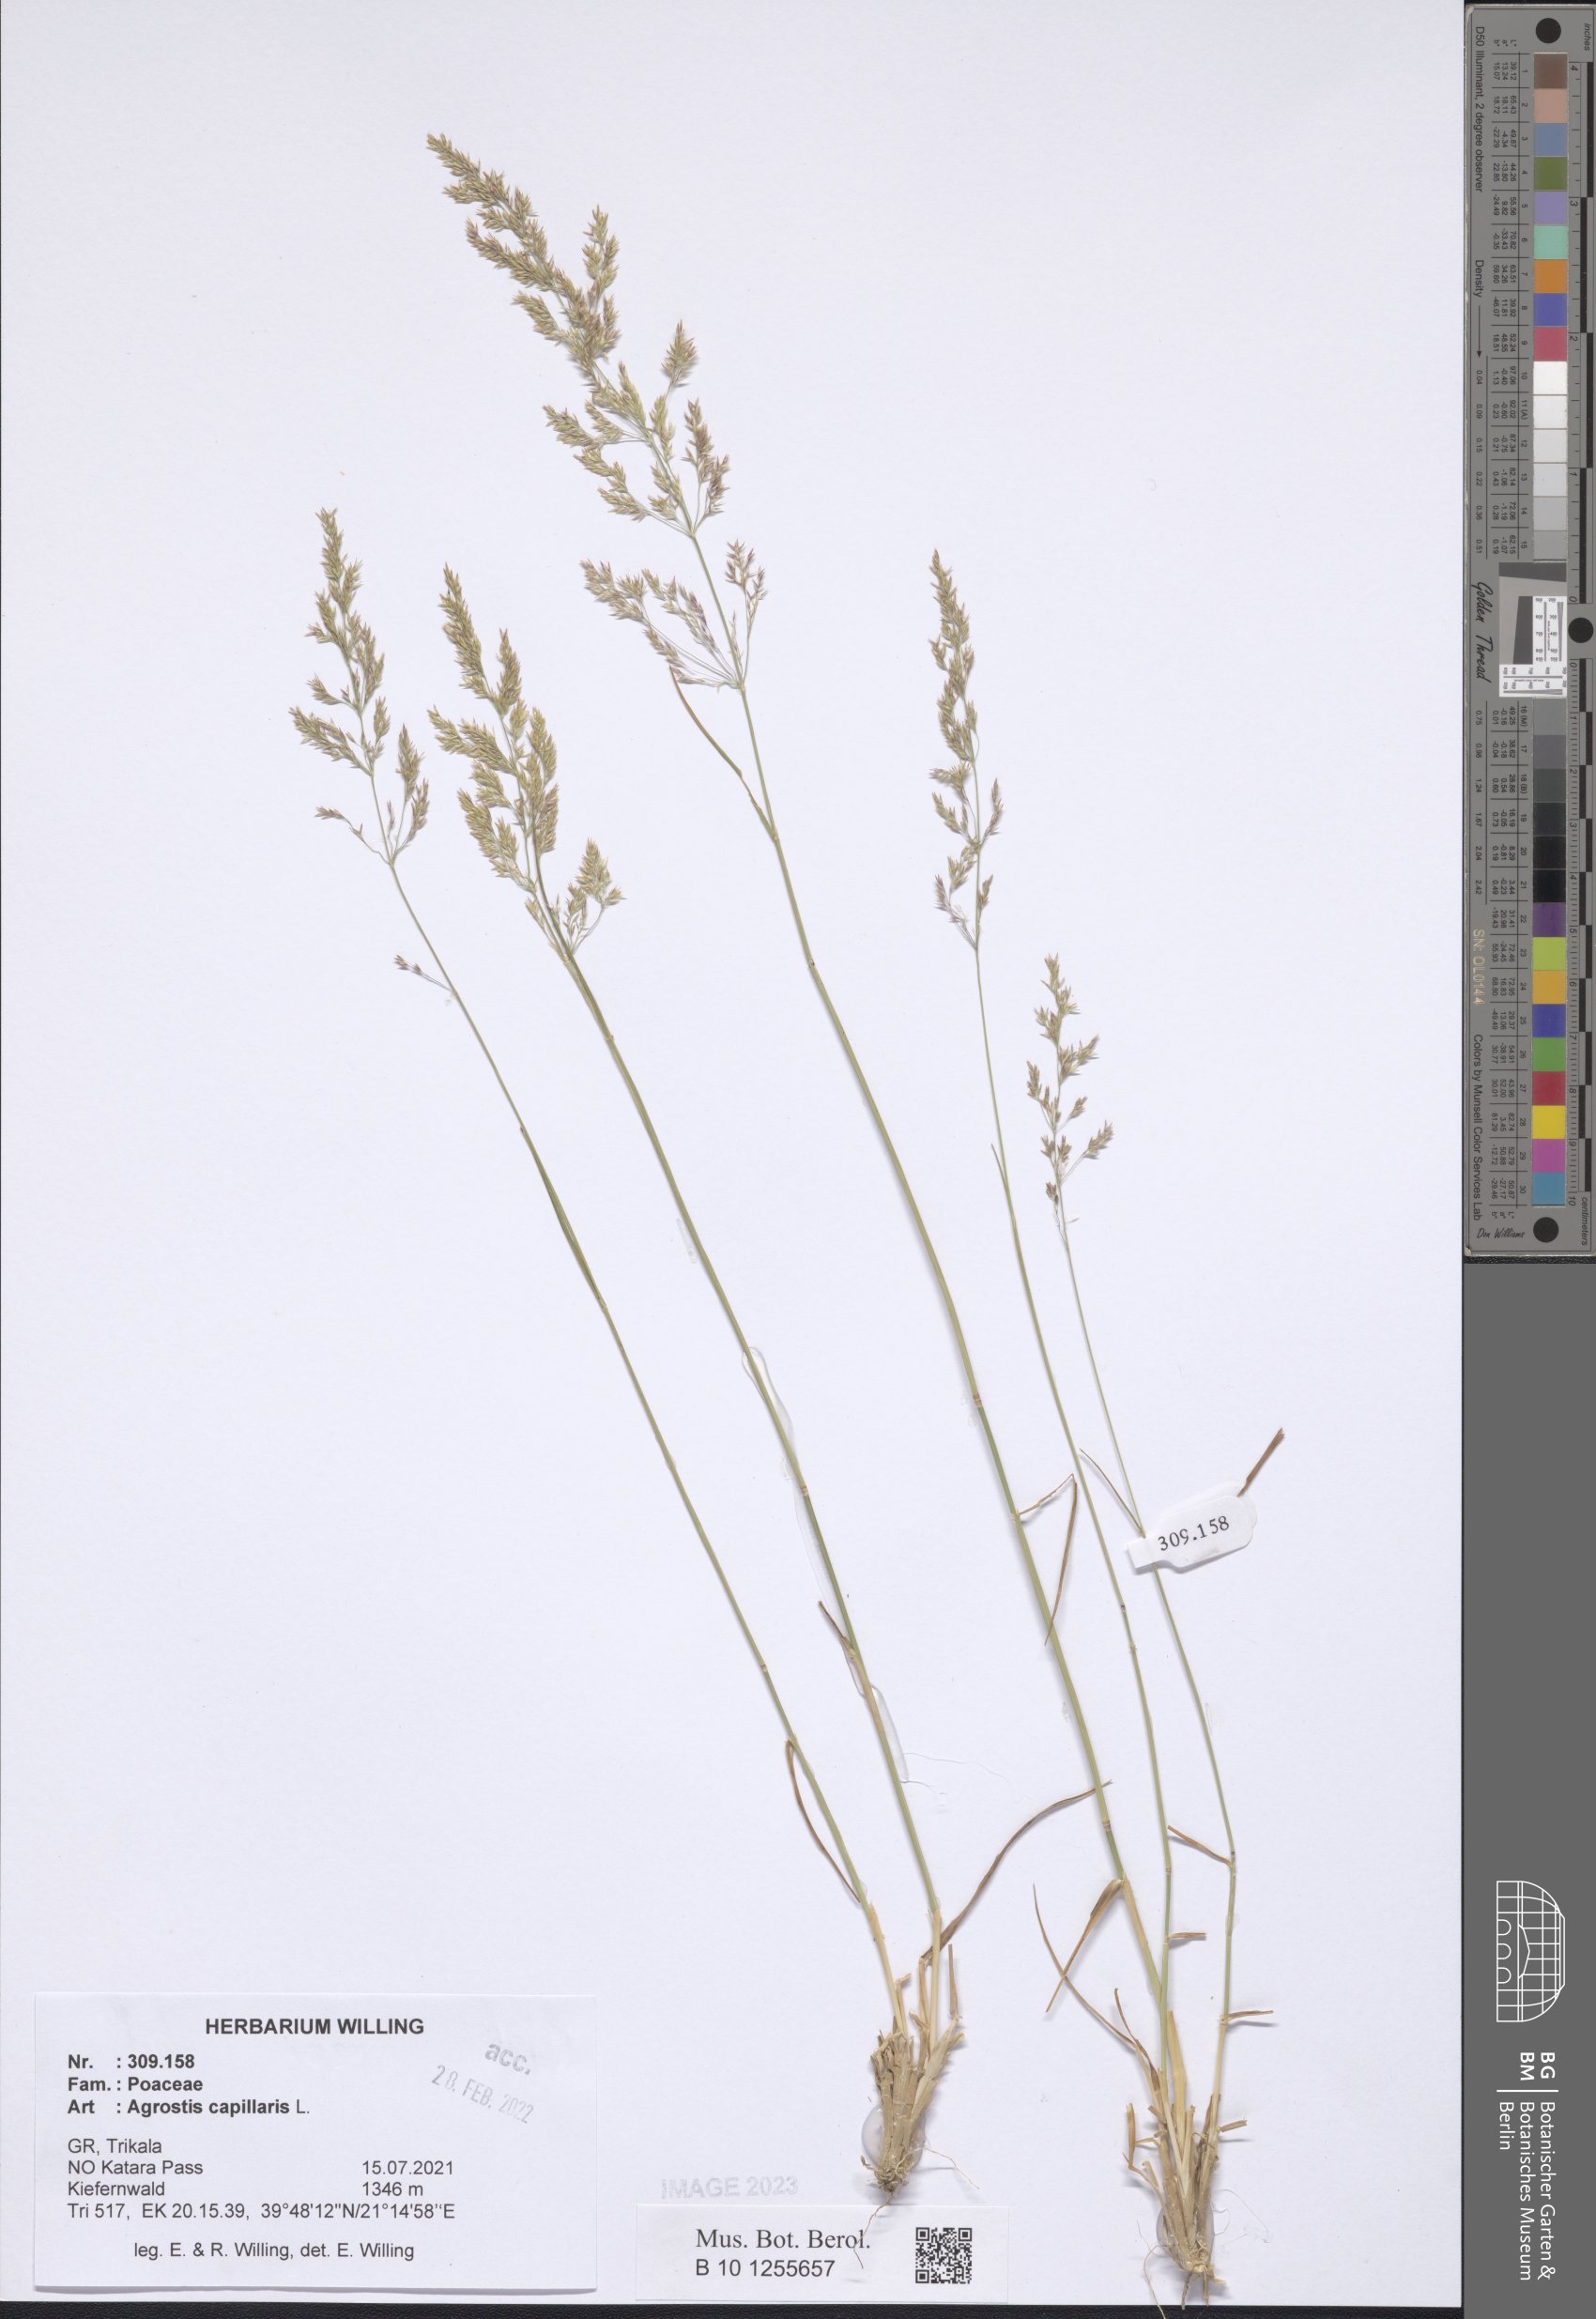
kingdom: Plantae
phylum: Tracheophyta
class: Liliopsida
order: Poales
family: Poaceae
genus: Agrostis
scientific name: Agrostis capillaris
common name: Colonial bentgrass
